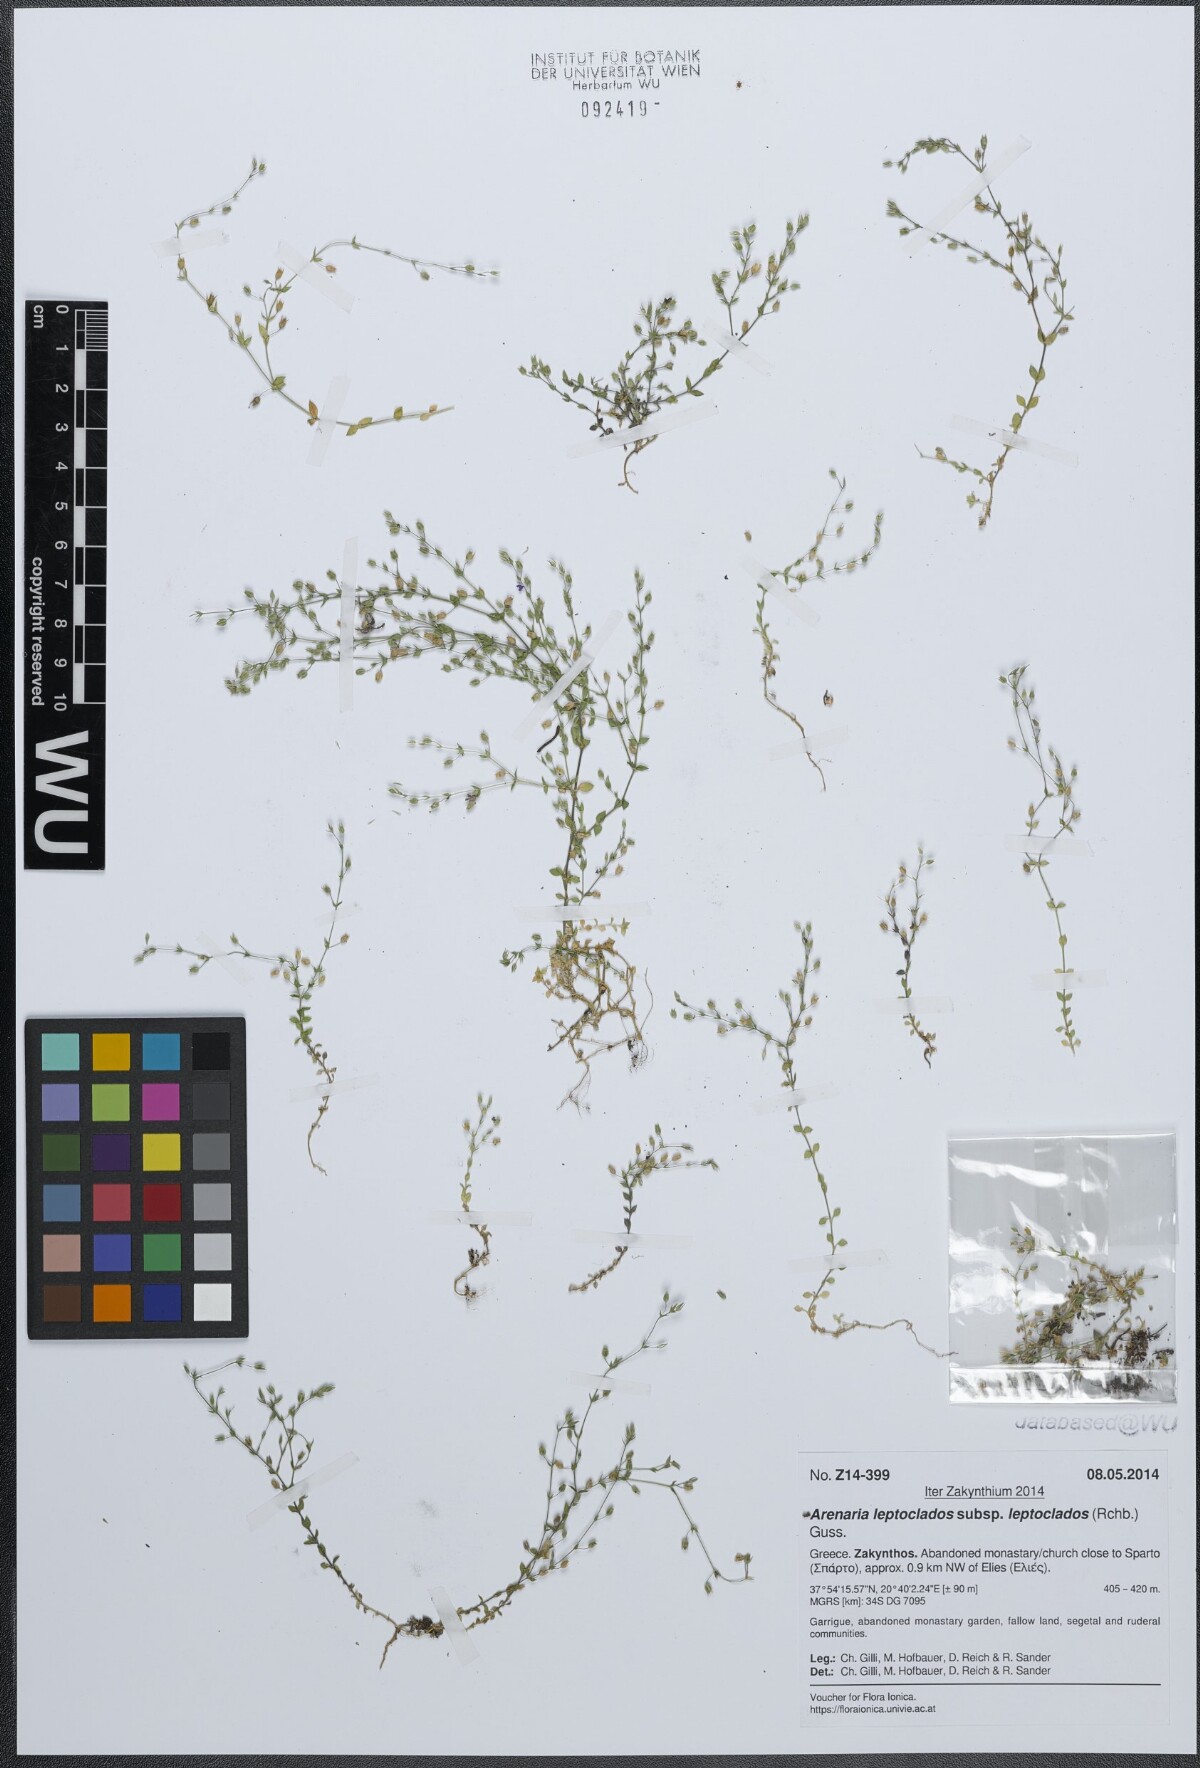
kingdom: Plantae
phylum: Tracheophyta
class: Magnoliopsida
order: Caryophyllales
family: Caryophyllaceae
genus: Arenaria
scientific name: Arenaria leptoclados
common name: Thyme-leaved sandwort
